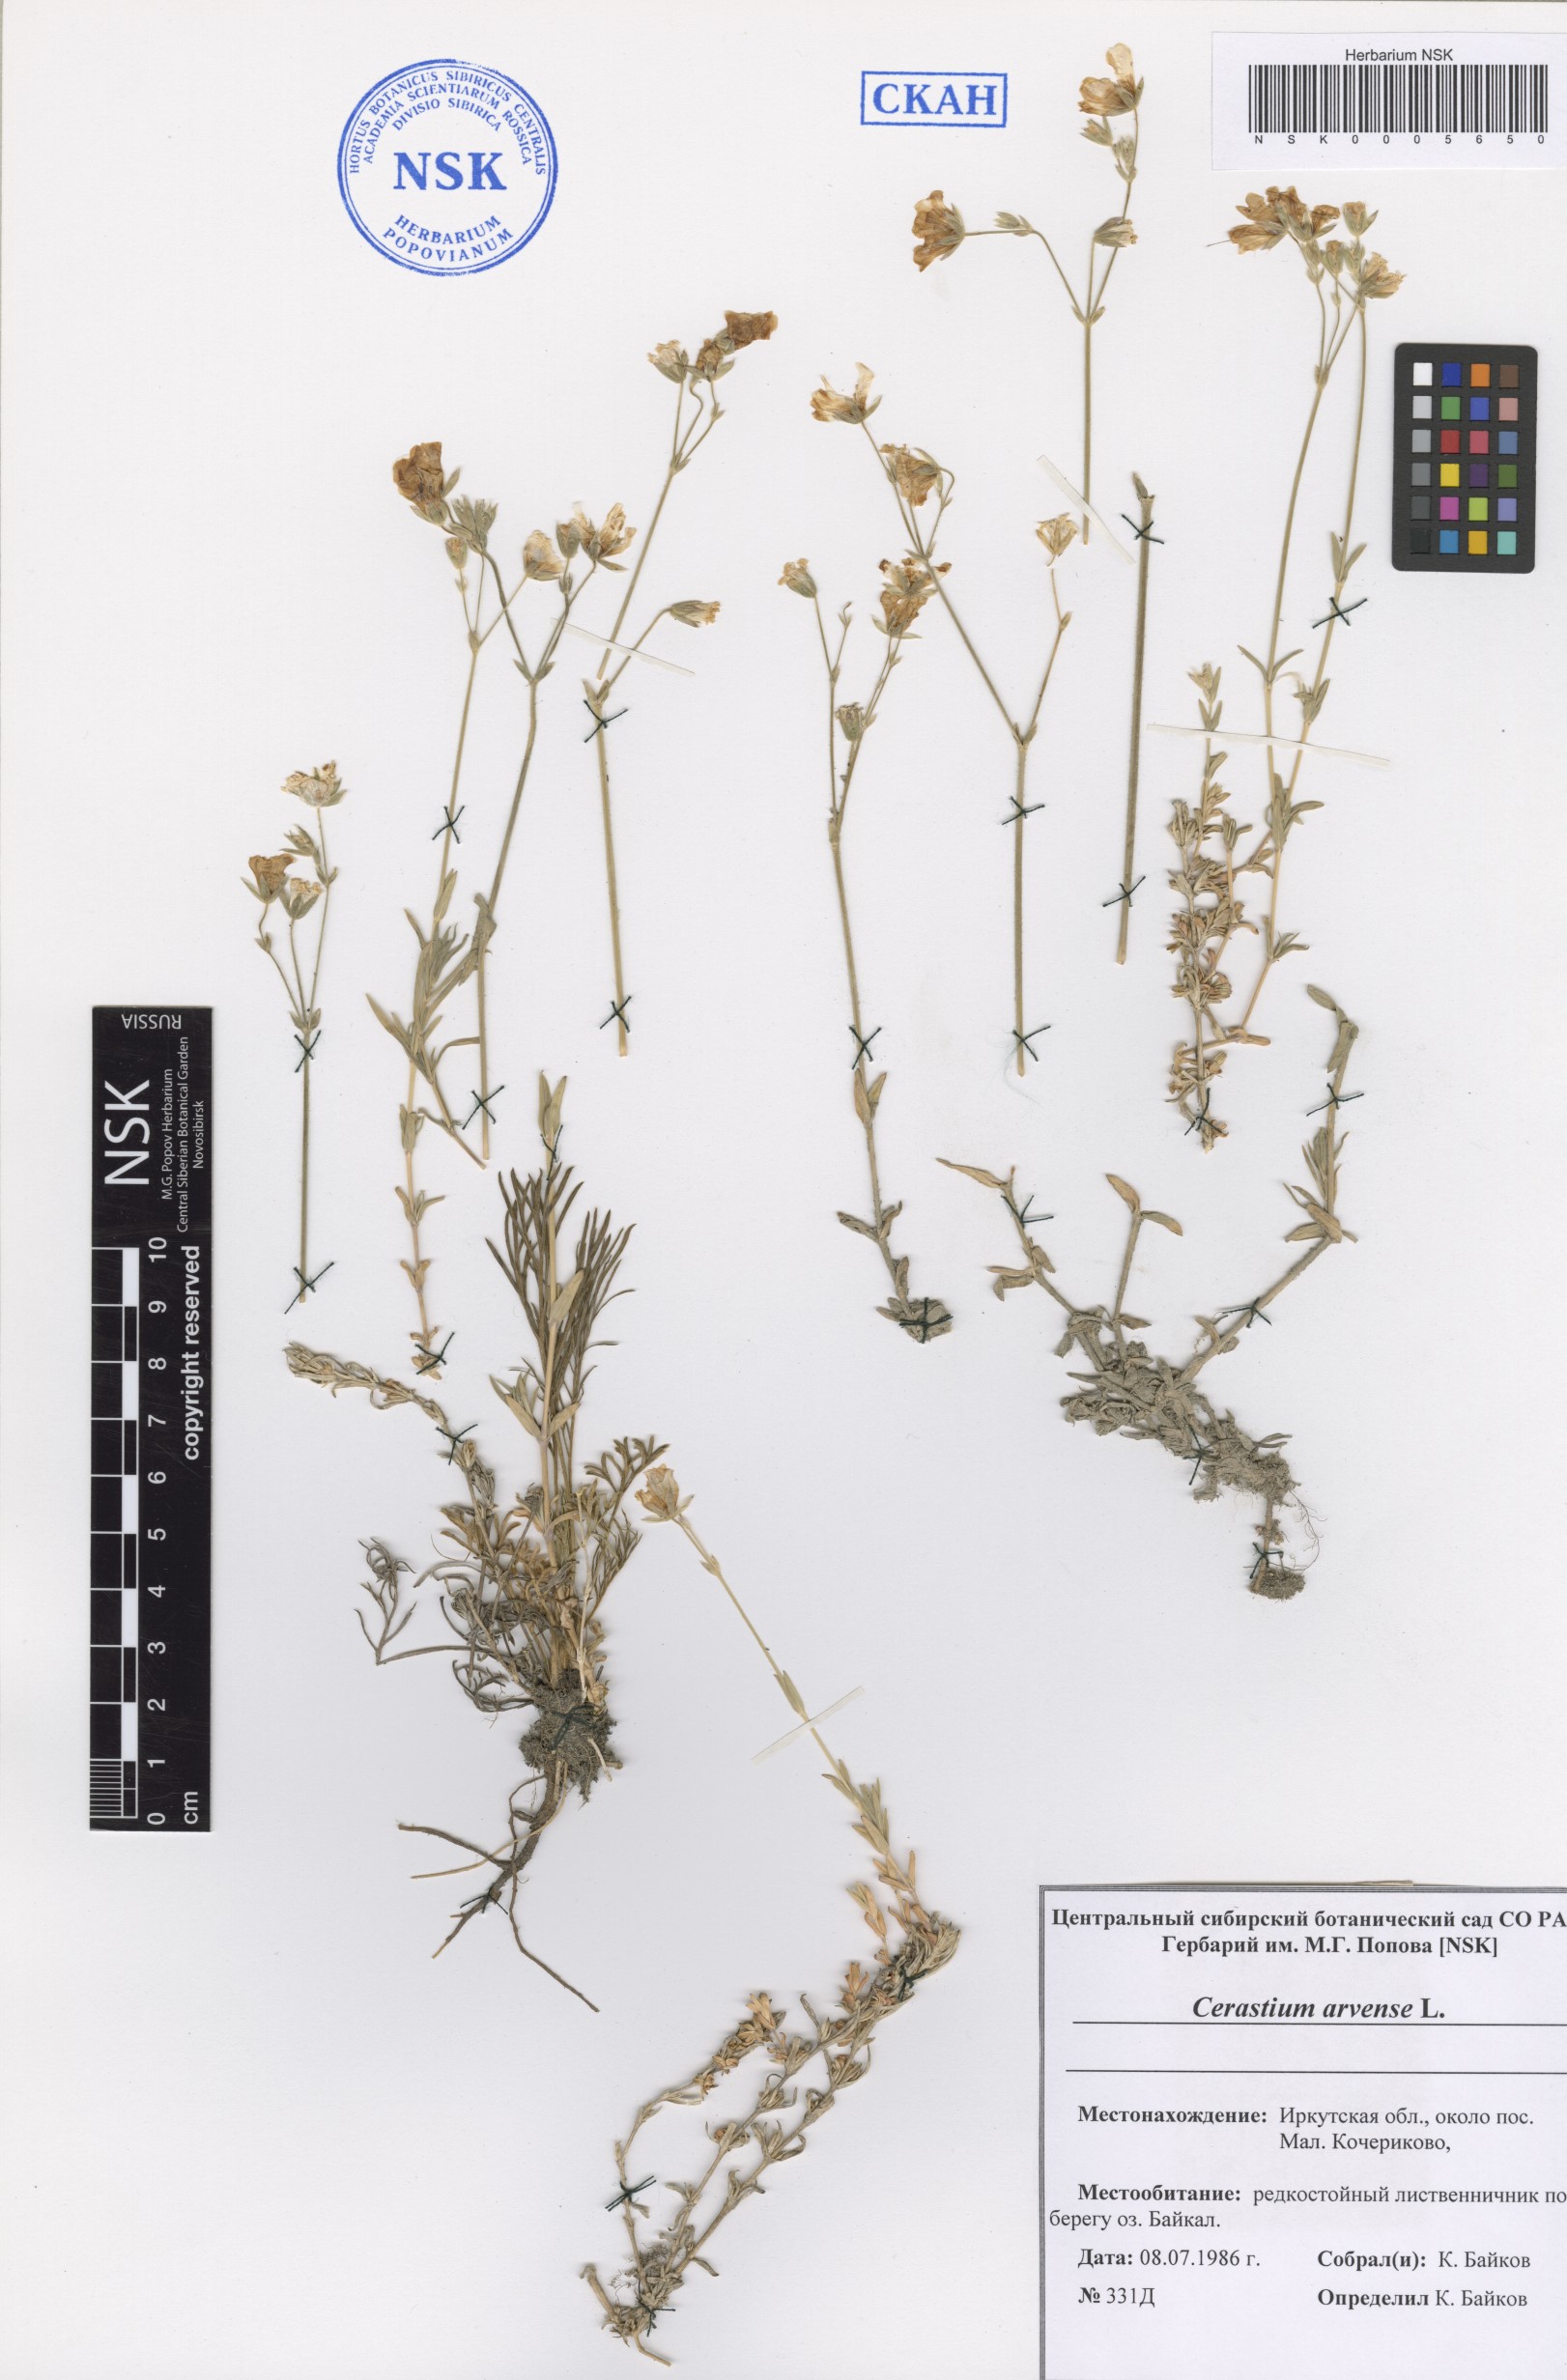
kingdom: Plantae
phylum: Tracheophyta
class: Magnoliopsida
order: Caryophyllales
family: Caryophyllaceae
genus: Cerastium
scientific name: Cerastium arvense
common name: Field mouse-ear
